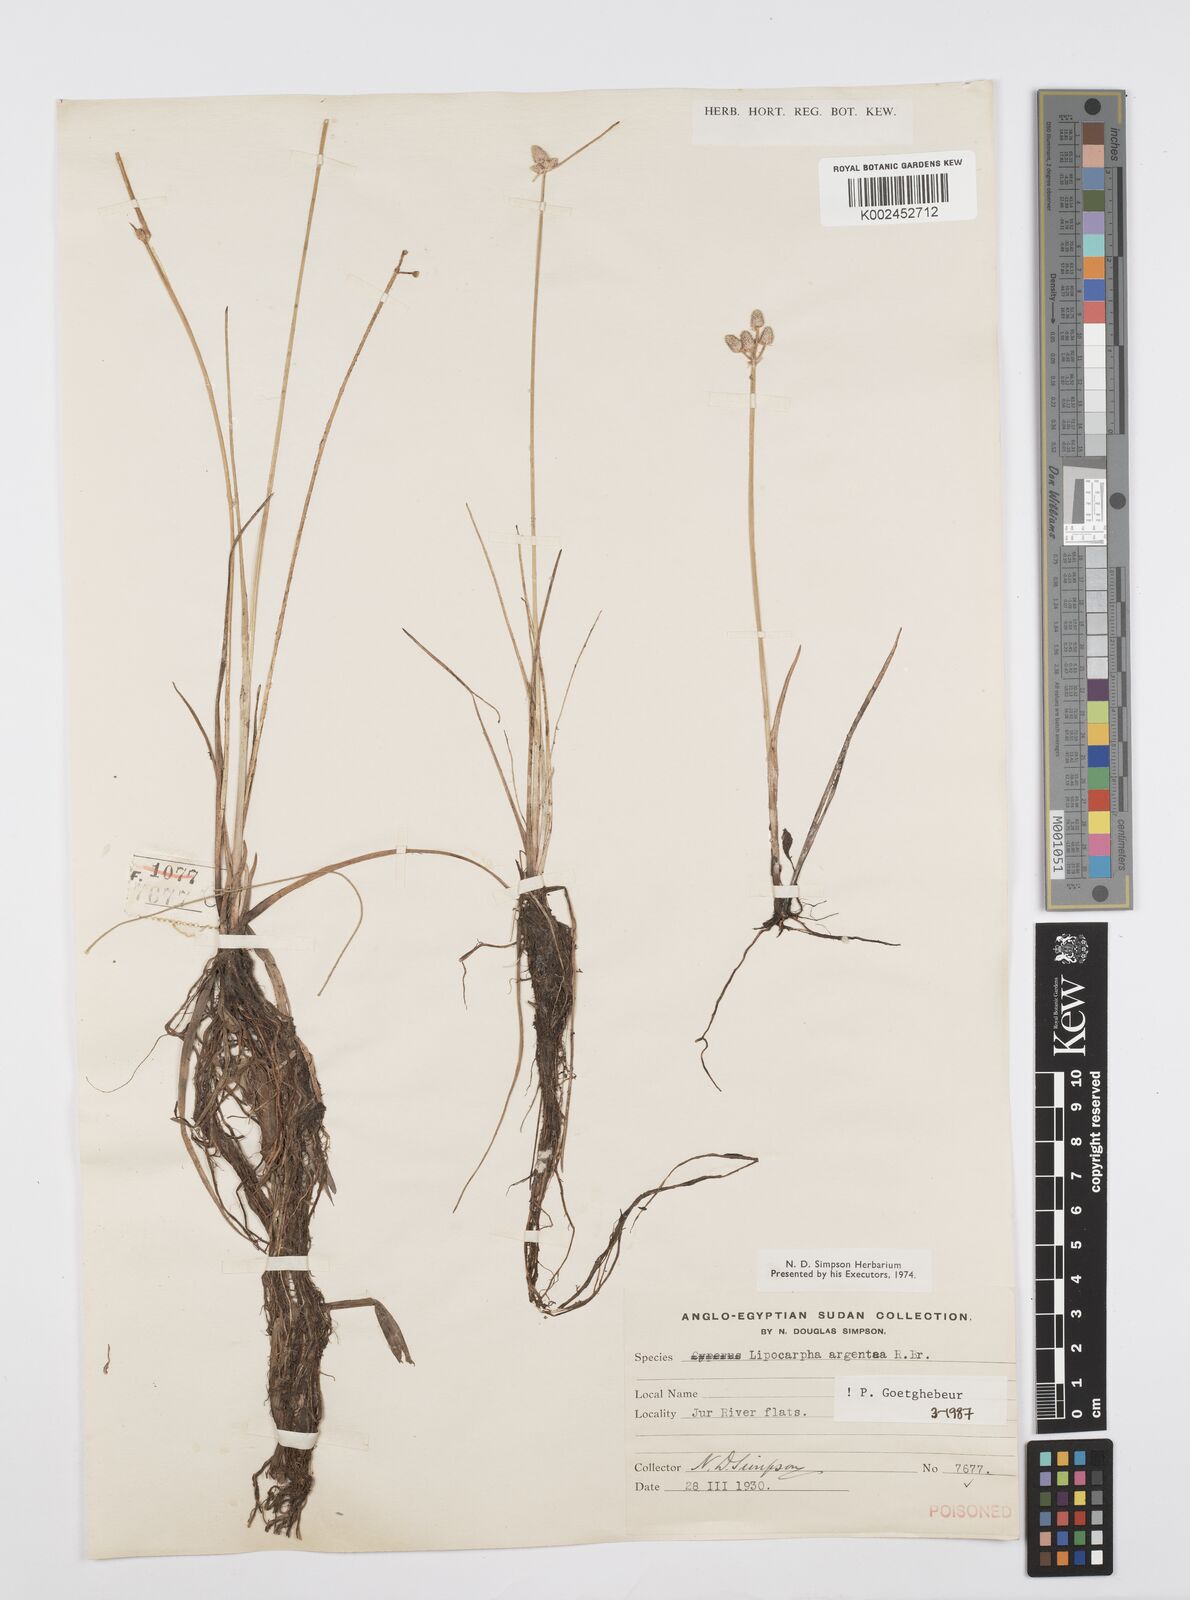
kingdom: Plantae
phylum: Tracheophyta
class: Liliopsida
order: Poales
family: Cyperaceae
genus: Cyperus
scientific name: Cyperus albescens
